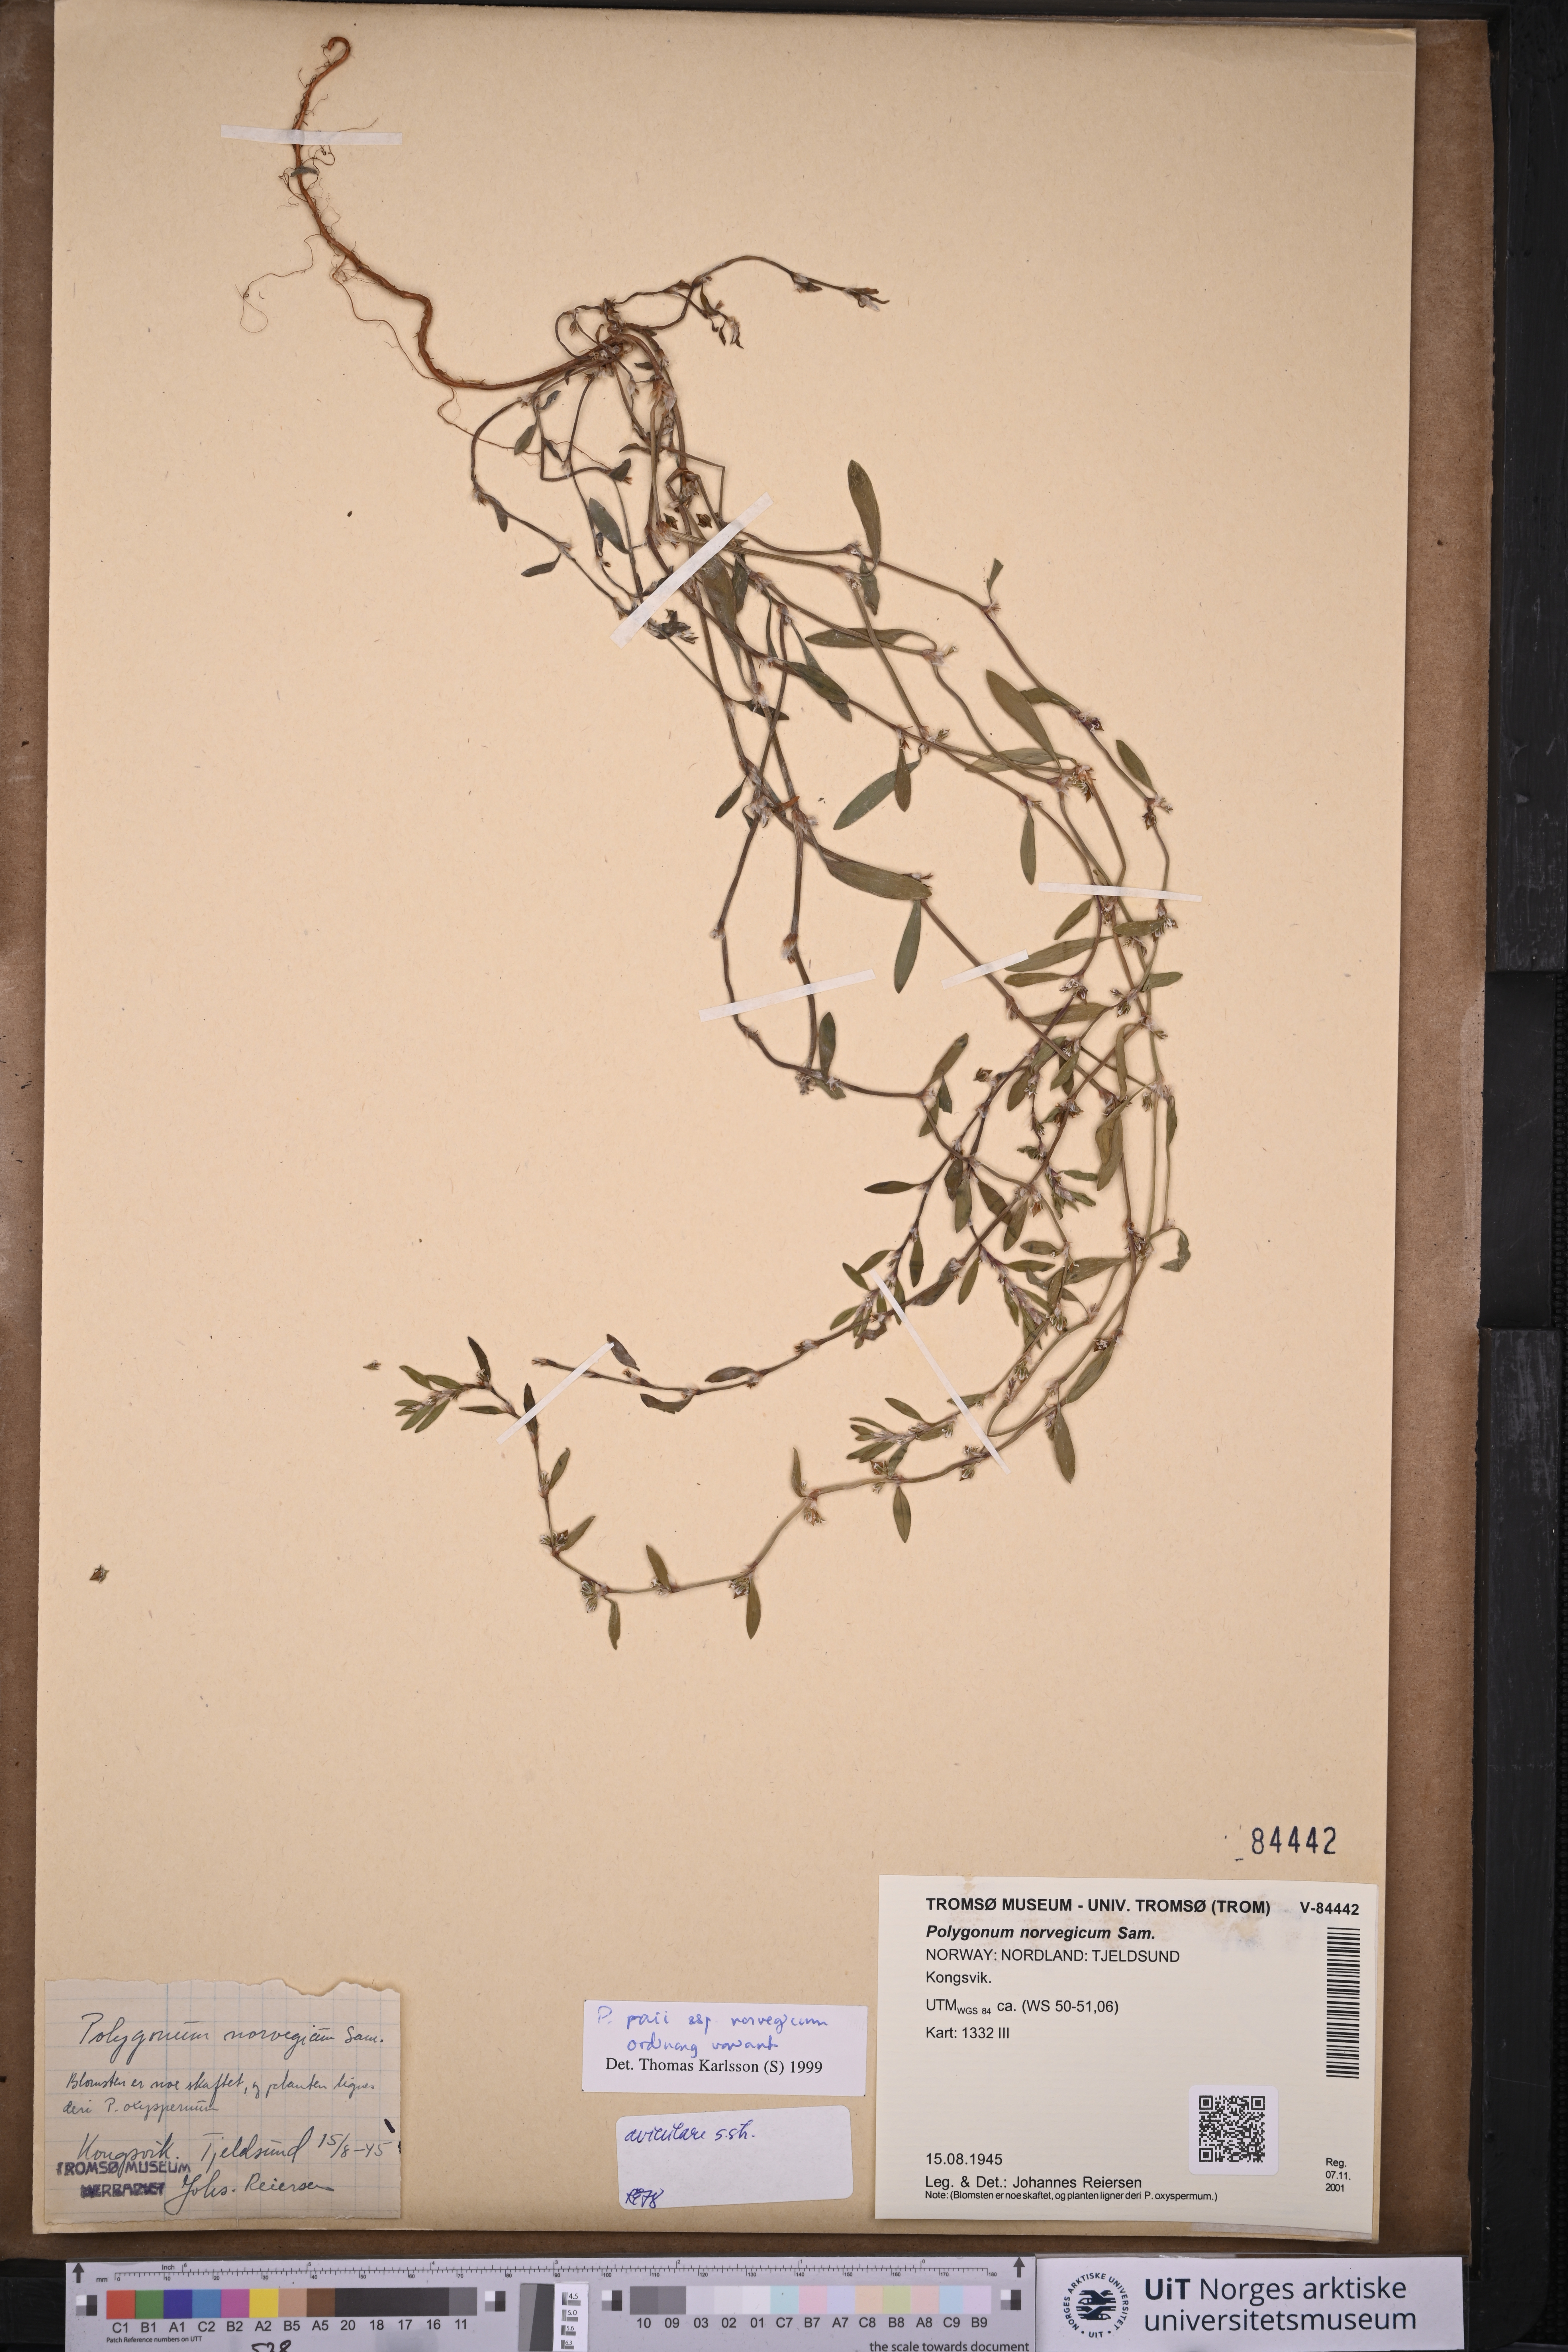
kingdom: Plantae
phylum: Tracheophyta
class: Magnoliopsida
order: Caryophyllales
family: Polygonaceae
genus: Polygonum
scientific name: Polygonum norvegicum
